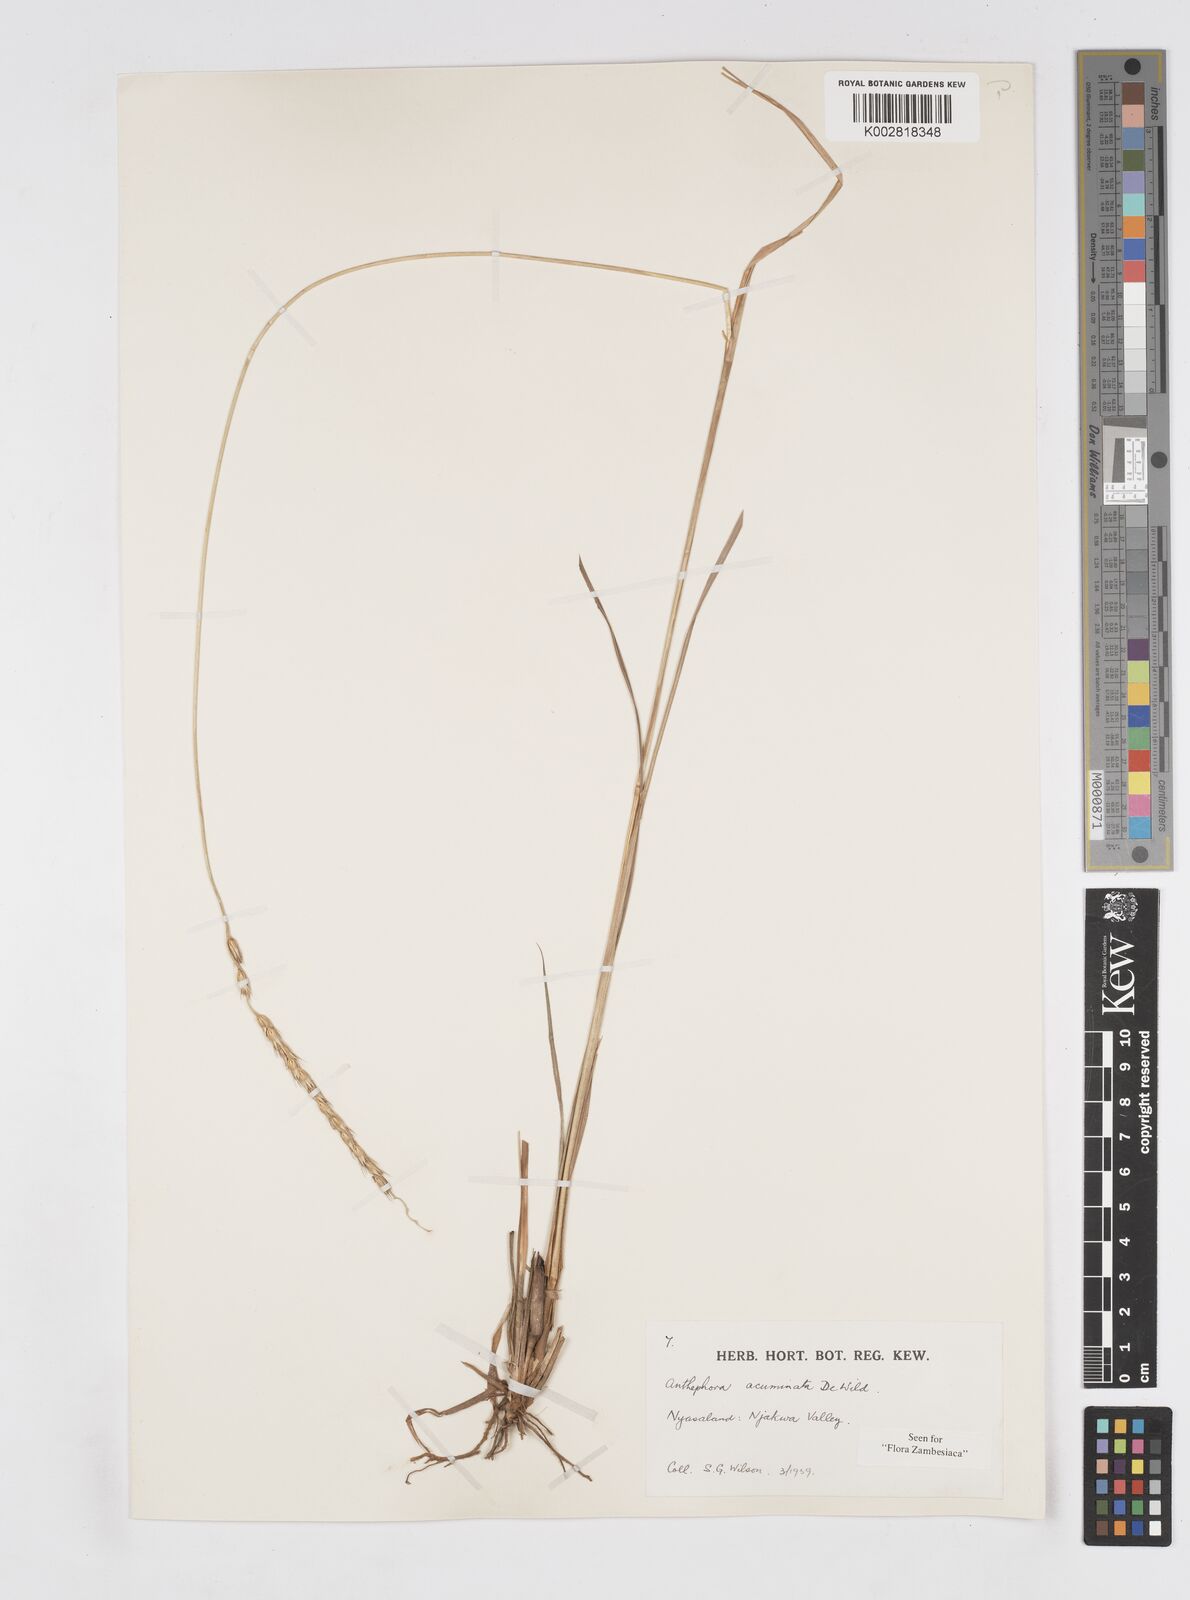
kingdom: Plantae
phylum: Tracheophyta
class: Liliopsida
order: Poales
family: Poaceae
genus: Anthephora
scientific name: Anthephora elongata
